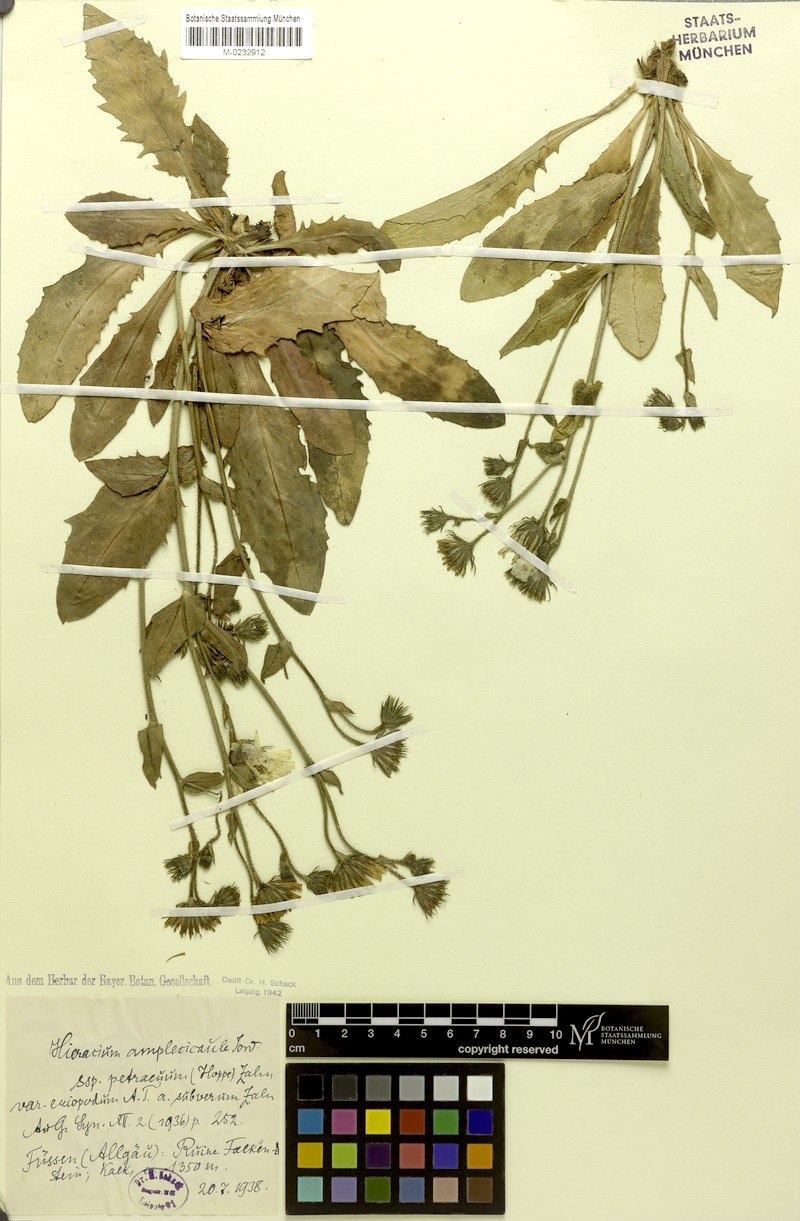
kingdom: Plantae
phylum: Tracheophyta
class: Magnoliopsida
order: Asterales
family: Asteraceae
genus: Hieracium
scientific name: Hieracium amplexicaule
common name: Sticky hawkweed
